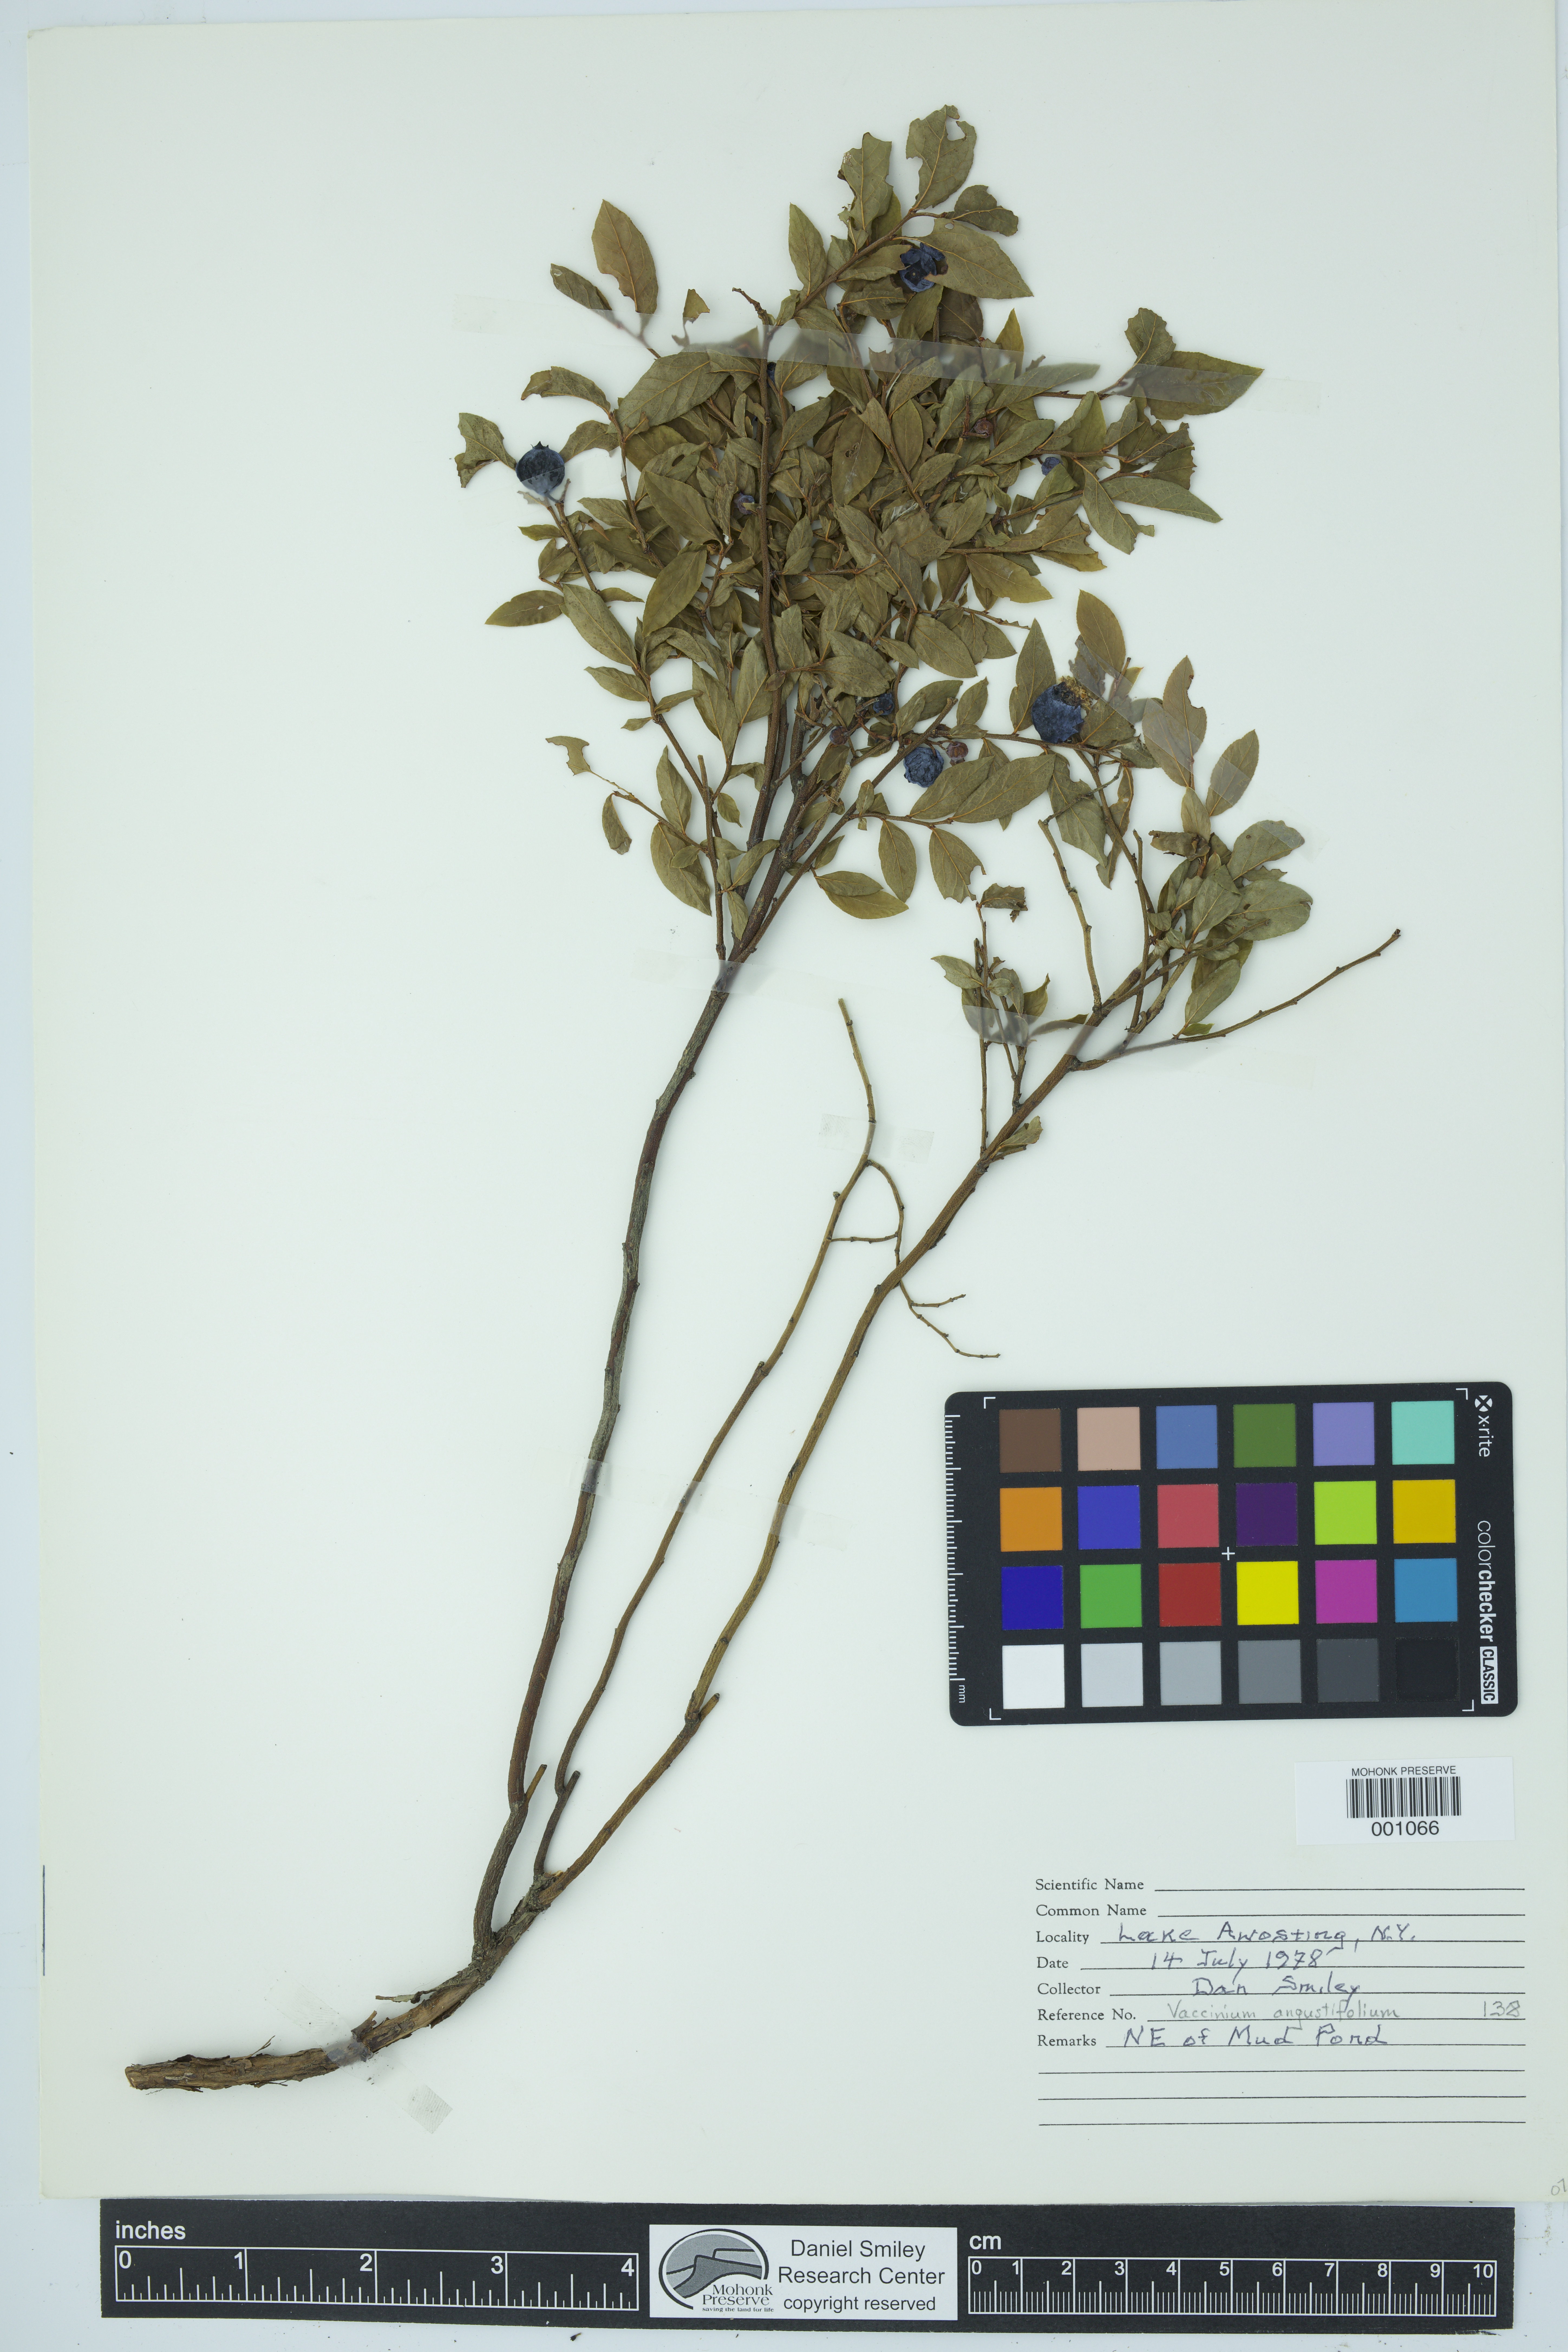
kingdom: Plantae
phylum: Tracheophyta
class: Magnoliopsida
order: Ericales
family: Ericaceae
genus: Vaccinium
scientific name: Vaccinium angustifolium
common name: Early lowbush blueberry
